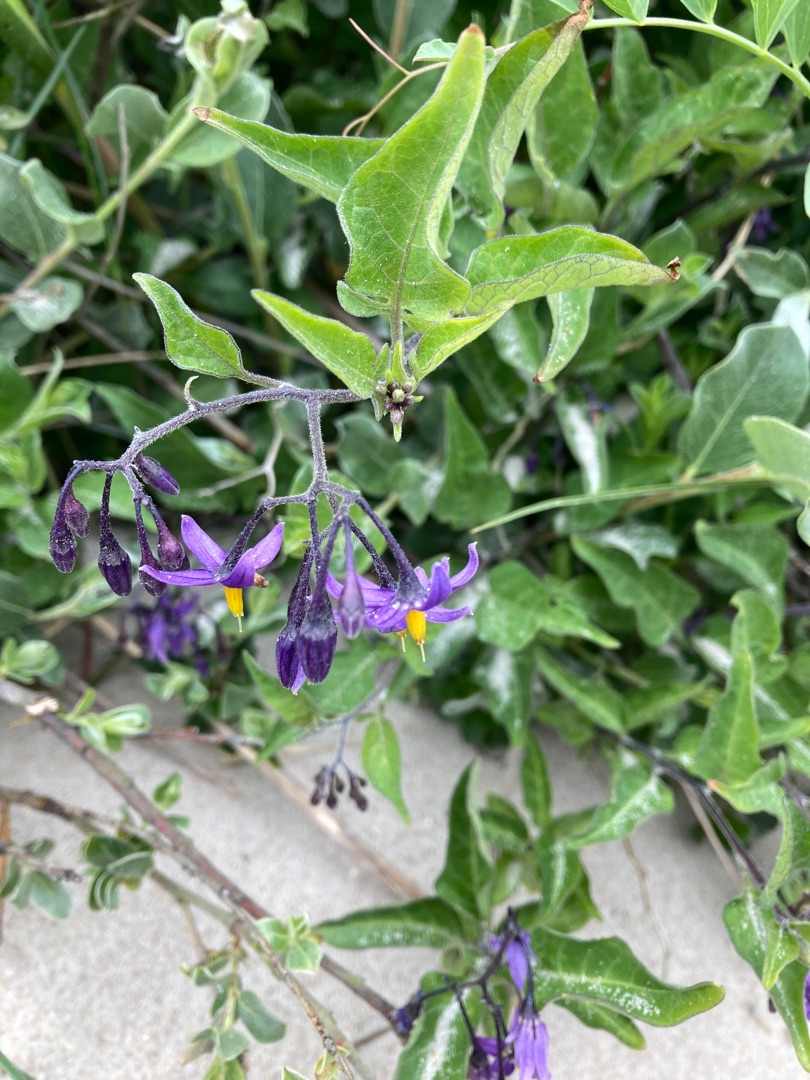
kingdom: Plantae
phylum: Tracheophyta
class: Magnoliopsida
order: Solanales
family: Solanaceae
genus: Solanum
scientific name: Solanum dulcamara
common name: Bittersød natskygge
